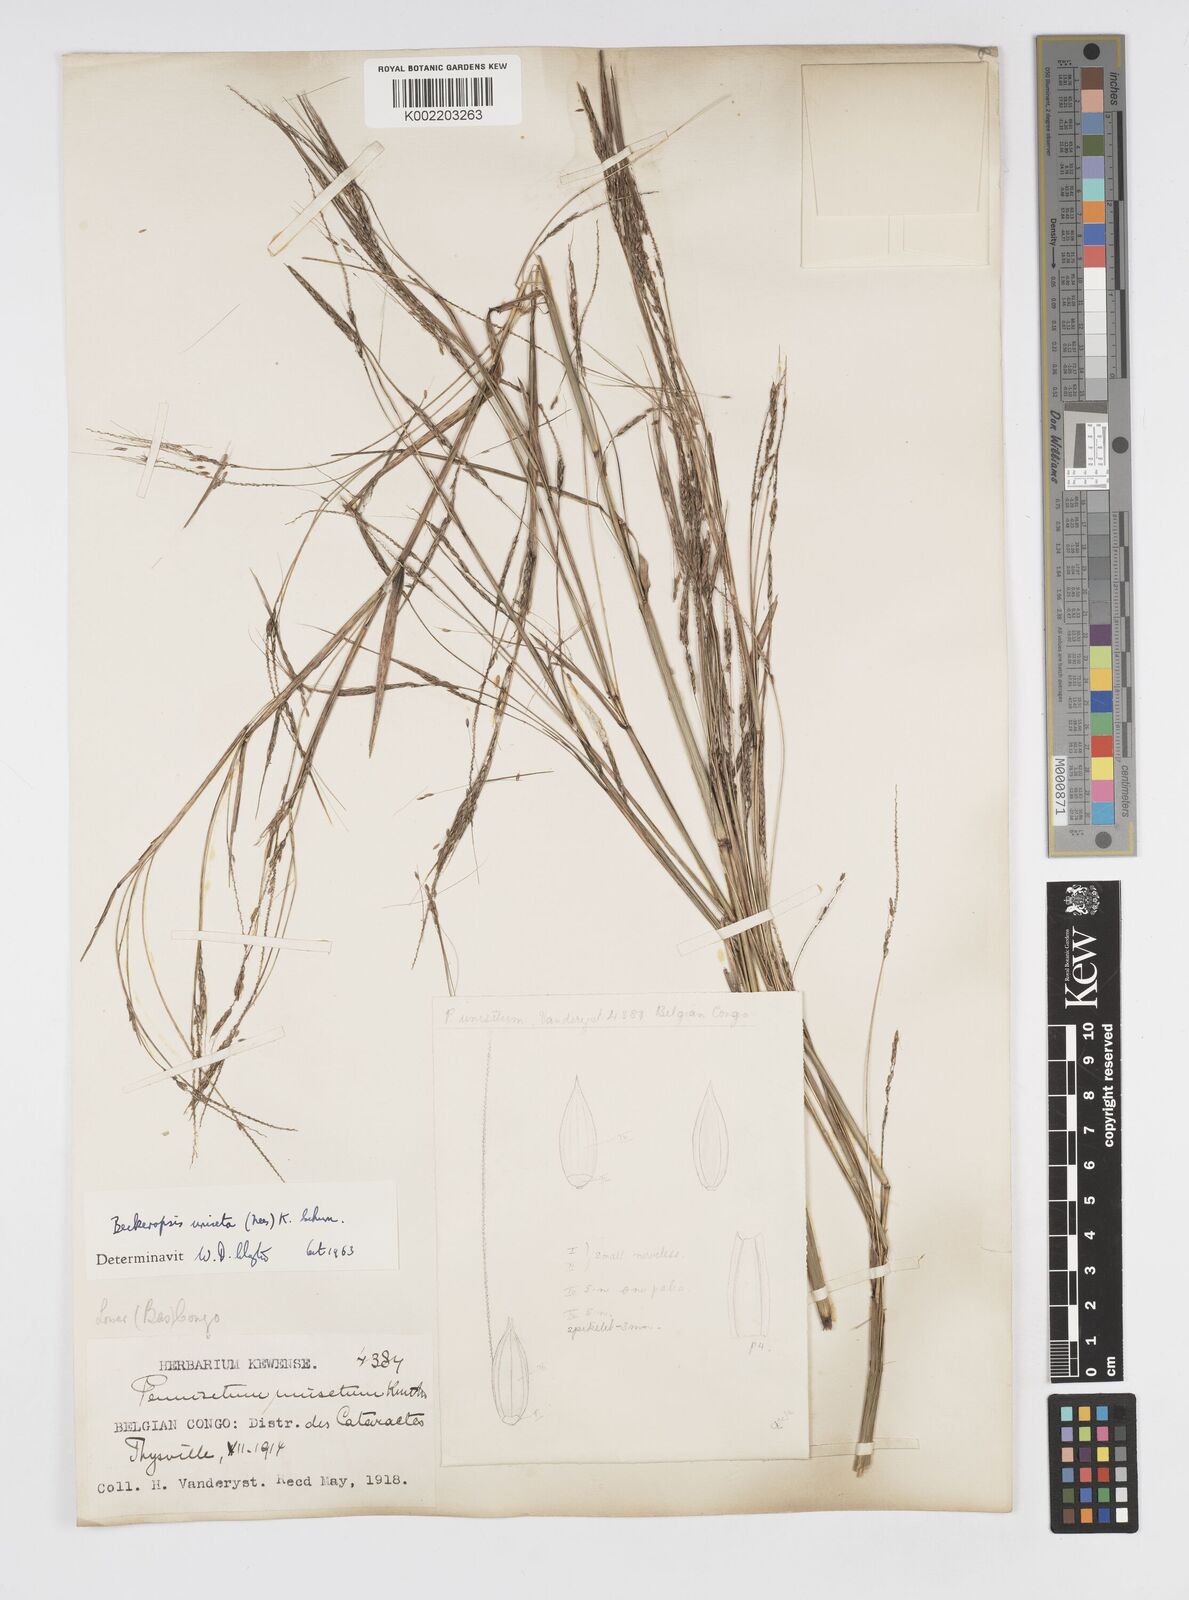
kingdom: Plantae
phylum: Tracheophyta
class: Liliopsida
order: Poales
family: Poaceae
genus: Cenchrus
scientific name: Cenchrus unisetus
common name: Natal grass
